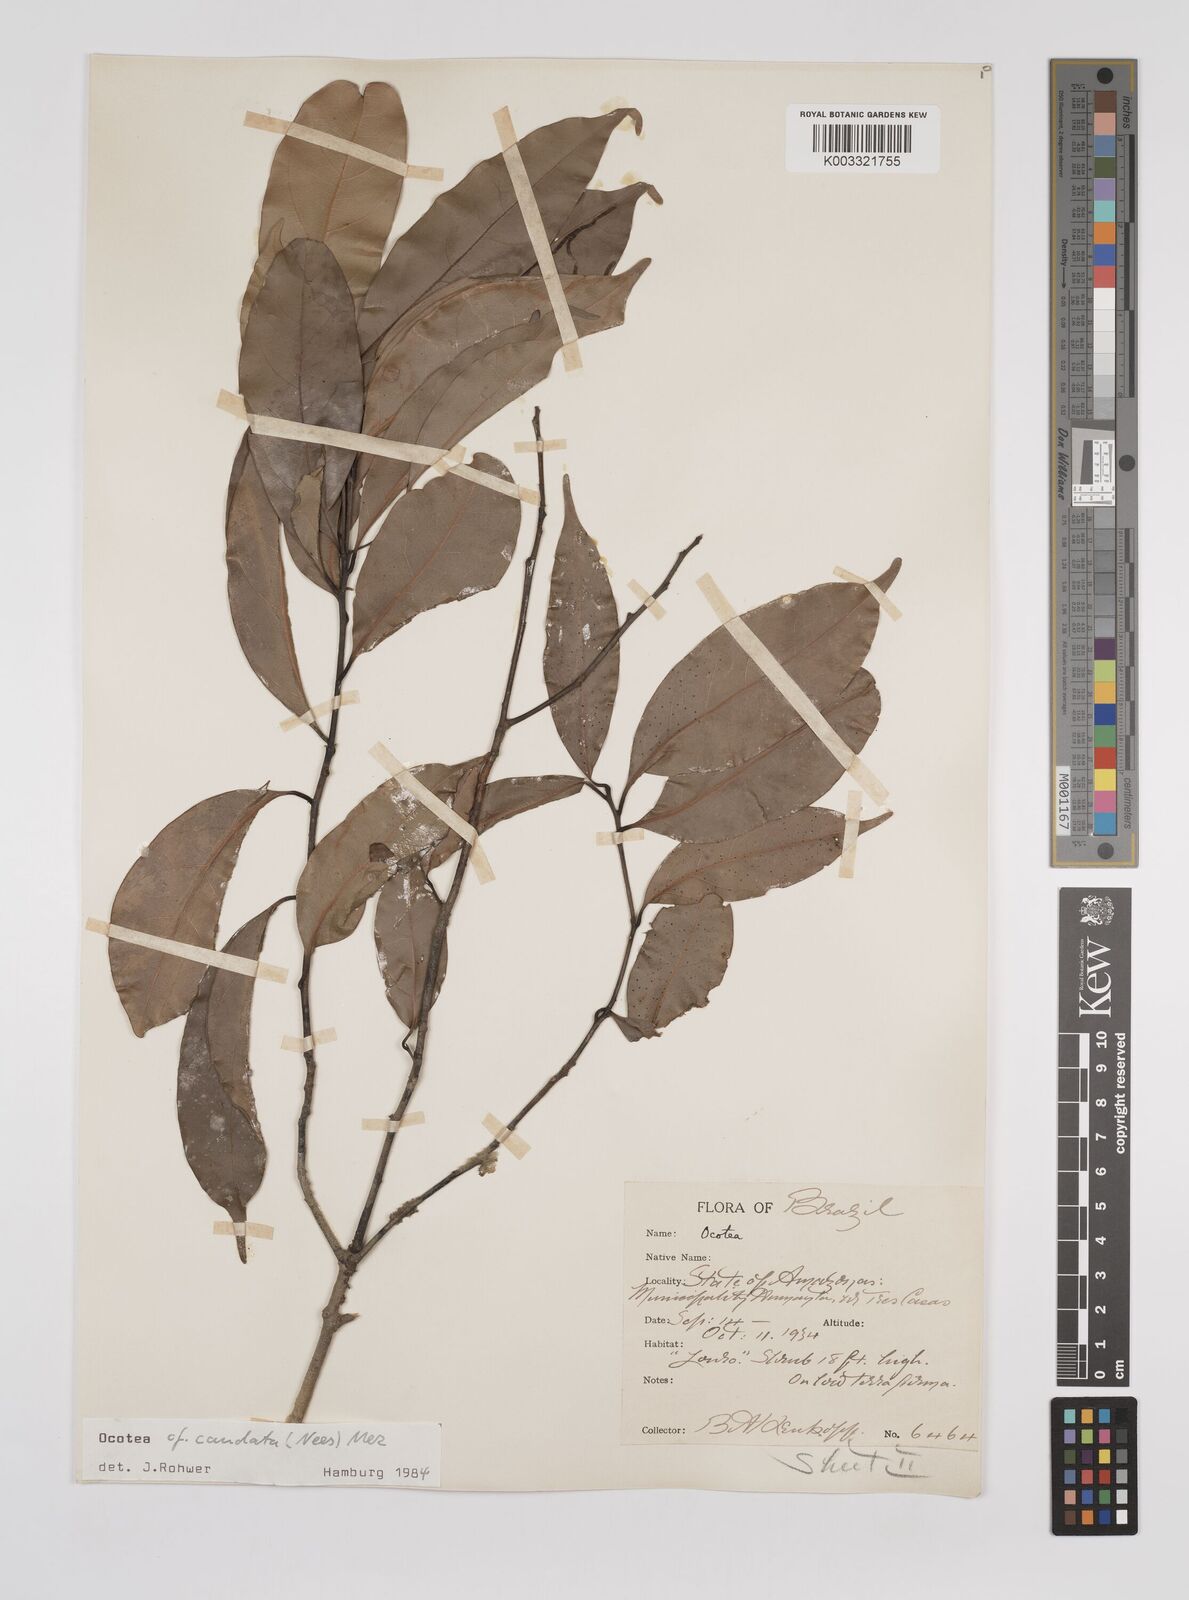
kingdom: Plantae
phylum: Tracheophyta
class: Magnoliopsida
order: Laurales
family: Lauraceae
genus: Ocotea
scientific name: Ocotea leptobotra
